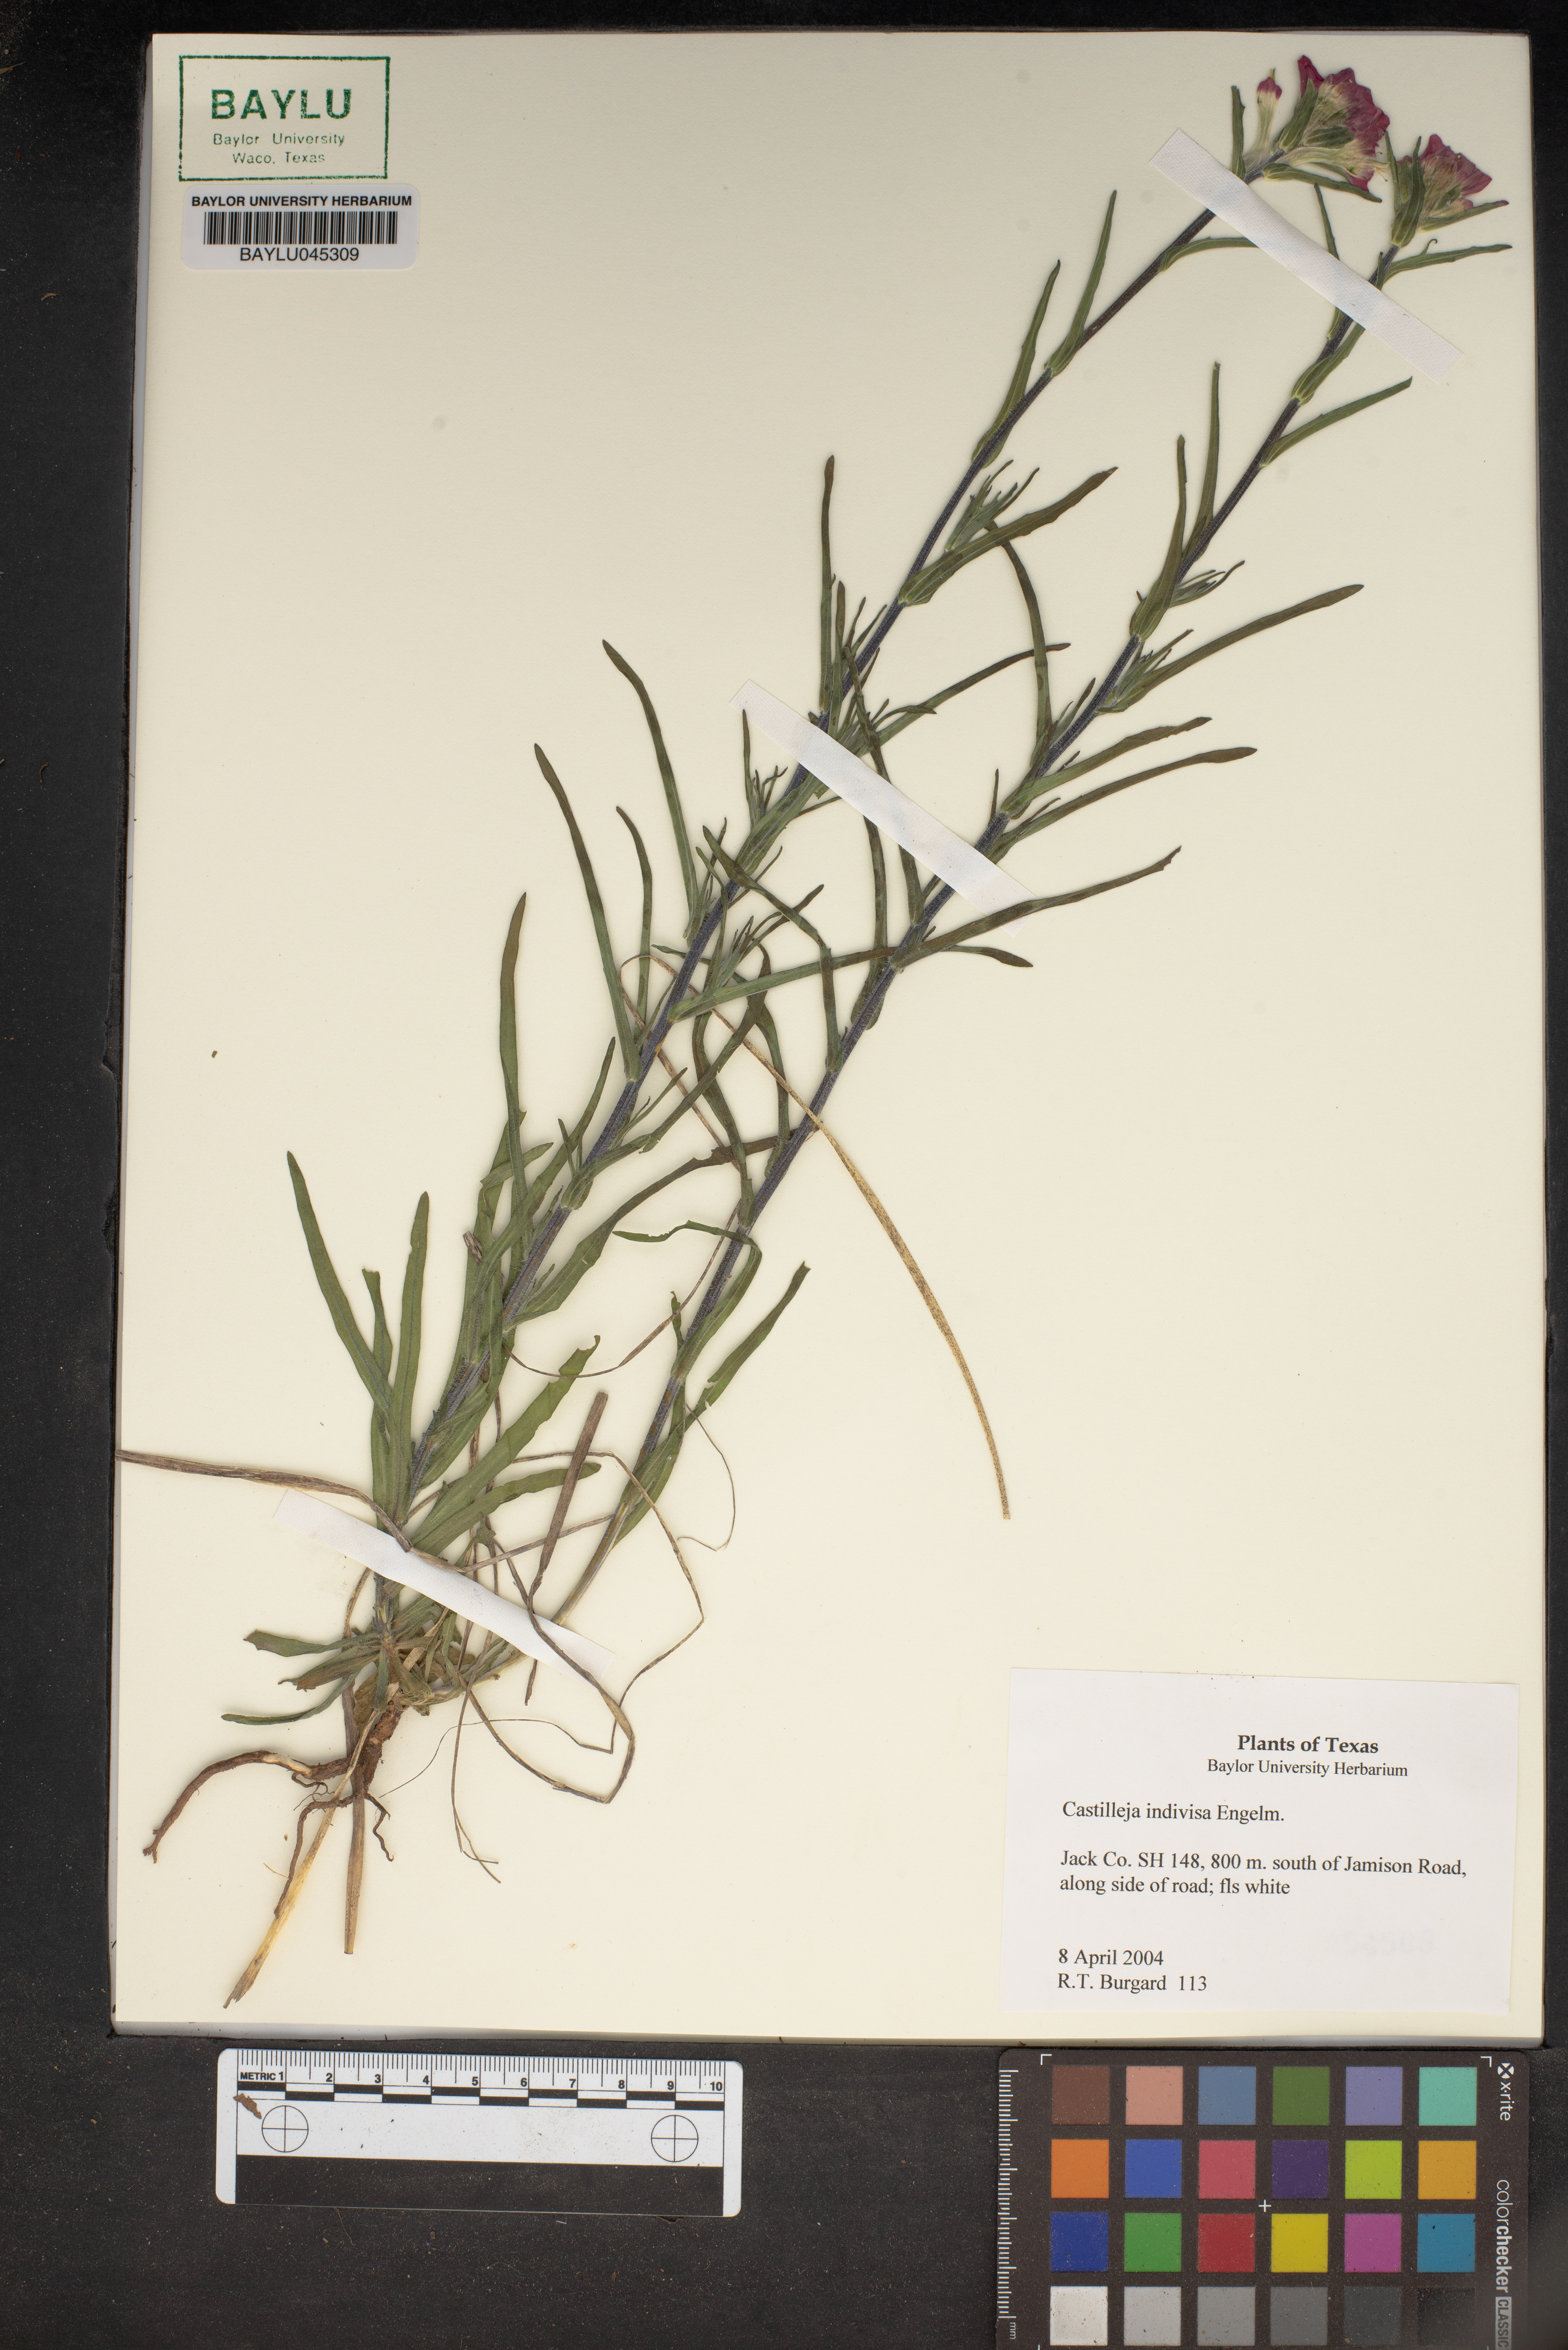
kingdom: Plantae
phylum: Tracheophyta
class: Magnoliopsida
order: Lamiales
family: Orobanchaceae
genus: Castilleja
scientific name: Castilleja indivisa
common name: Texas paintbrush
